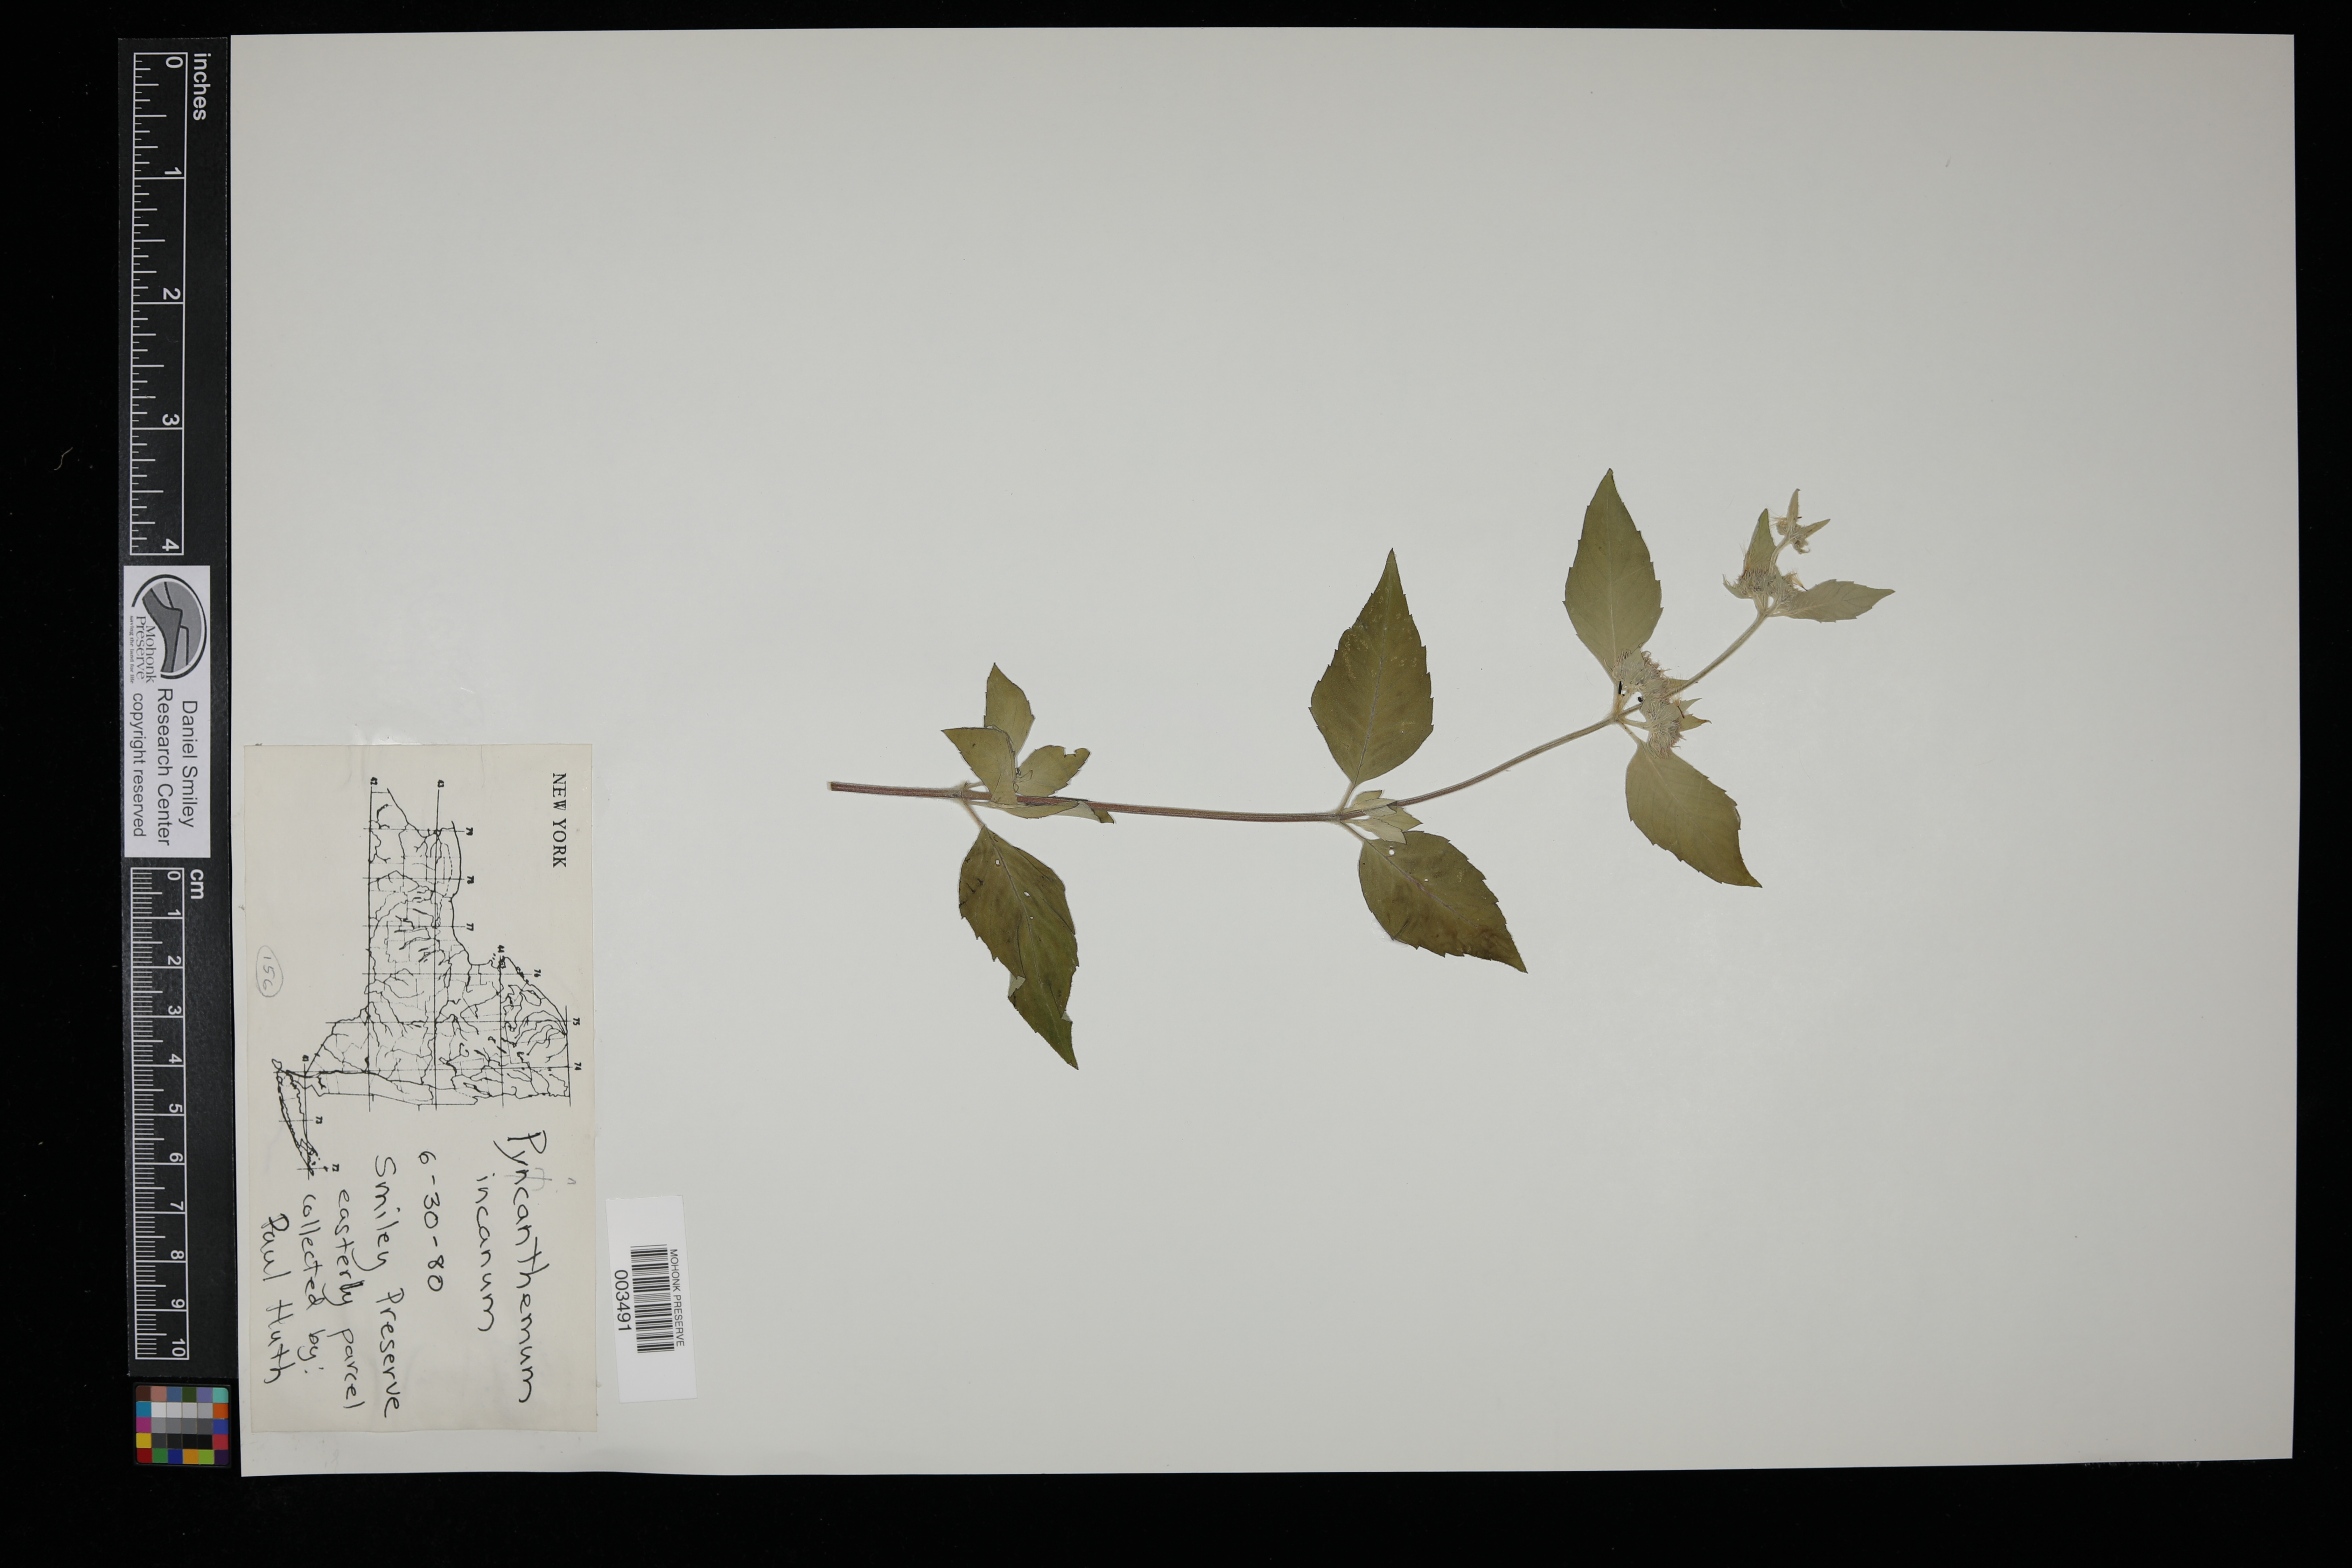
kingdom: Plantae
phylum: Tracheophyta
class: Magnoliopsida
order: Lamiales
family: Lamiaceae
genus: Pycnanthemum
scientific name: Pycnanthemum incanum
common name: Hoary mountain-mint
